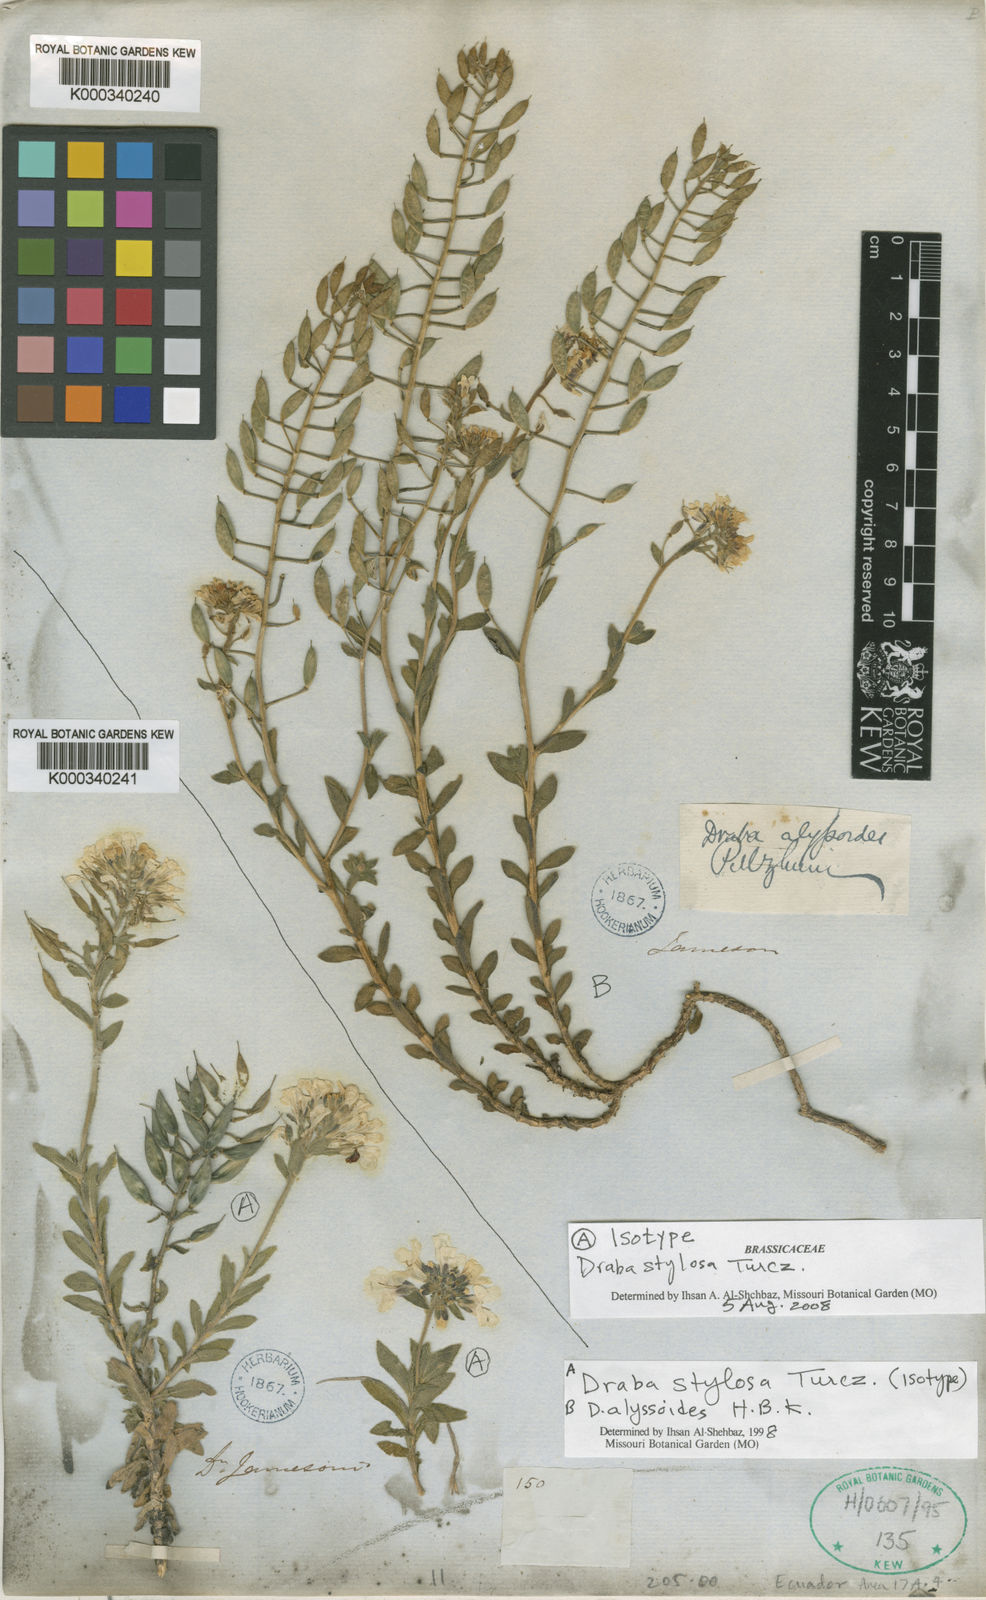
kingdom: Plantae
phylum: Tracheophyta
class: Magnoliopsida
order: Brassicales
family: Brassicaceae
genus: Draba
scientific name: Draba
